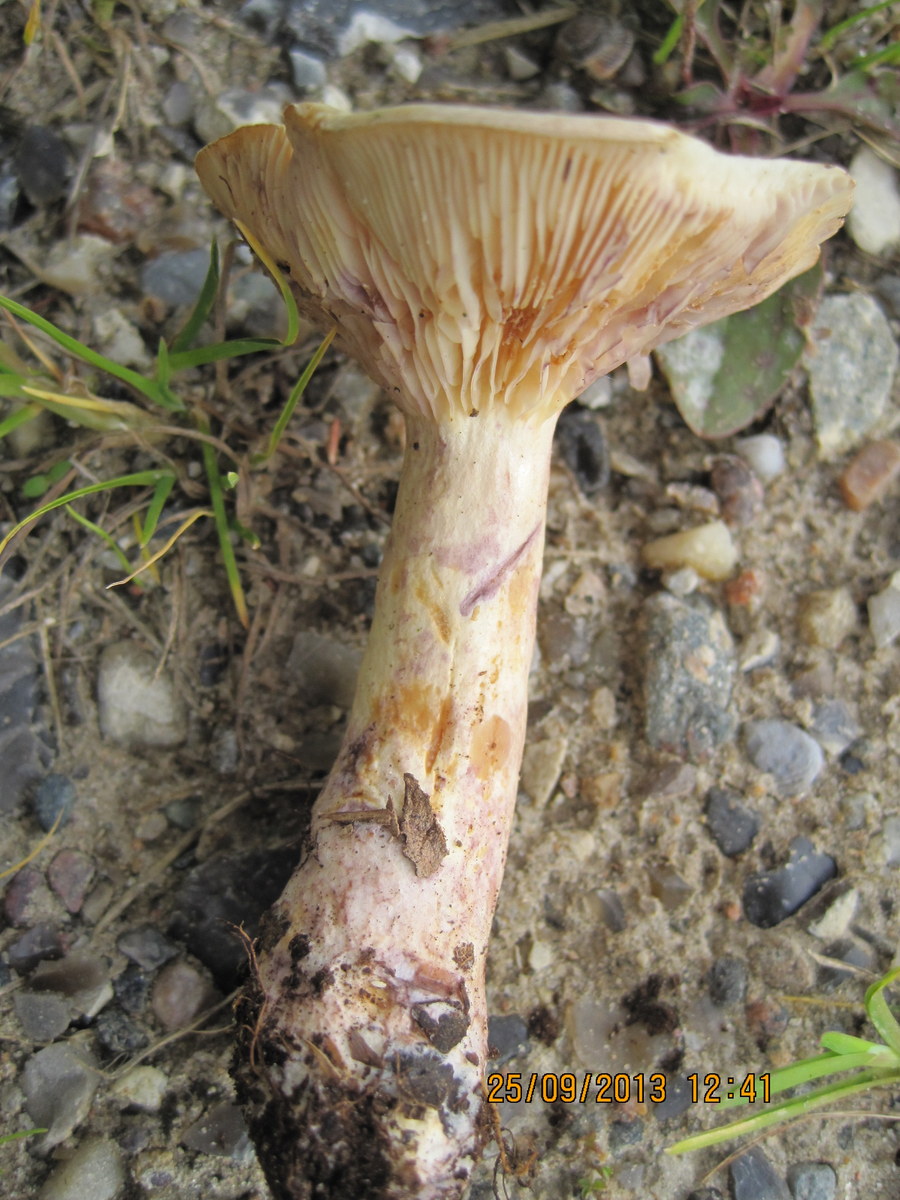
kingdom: Fungi
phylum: Basidiomycota
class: Agaricomycetes
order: Russulales
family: Russulaceae
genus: Lactarius
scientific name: Lactarius aspideus
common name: pile-mælkehat
